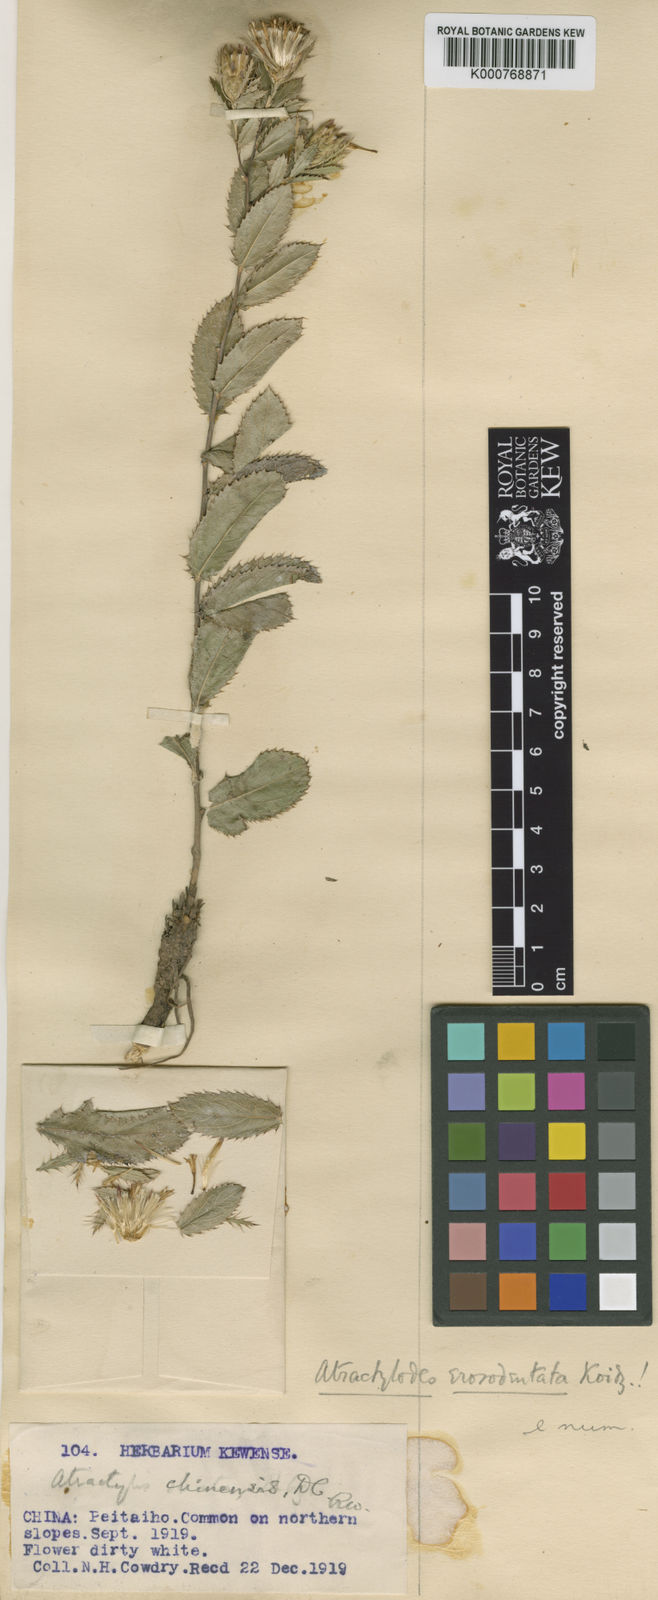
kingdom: Plantae
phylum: Tracheophyta
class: Magnoliopsida
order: Asterales
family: Asteraceae
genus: Atractylis
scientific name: Atractylis
